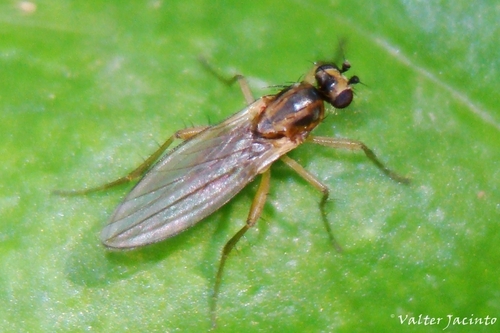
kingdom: Animalia
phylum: Arthropoda
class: Insecta
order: Diptera
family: Lonchopteridae
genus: Lonchoptera
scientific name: Lonchoptera lutea
